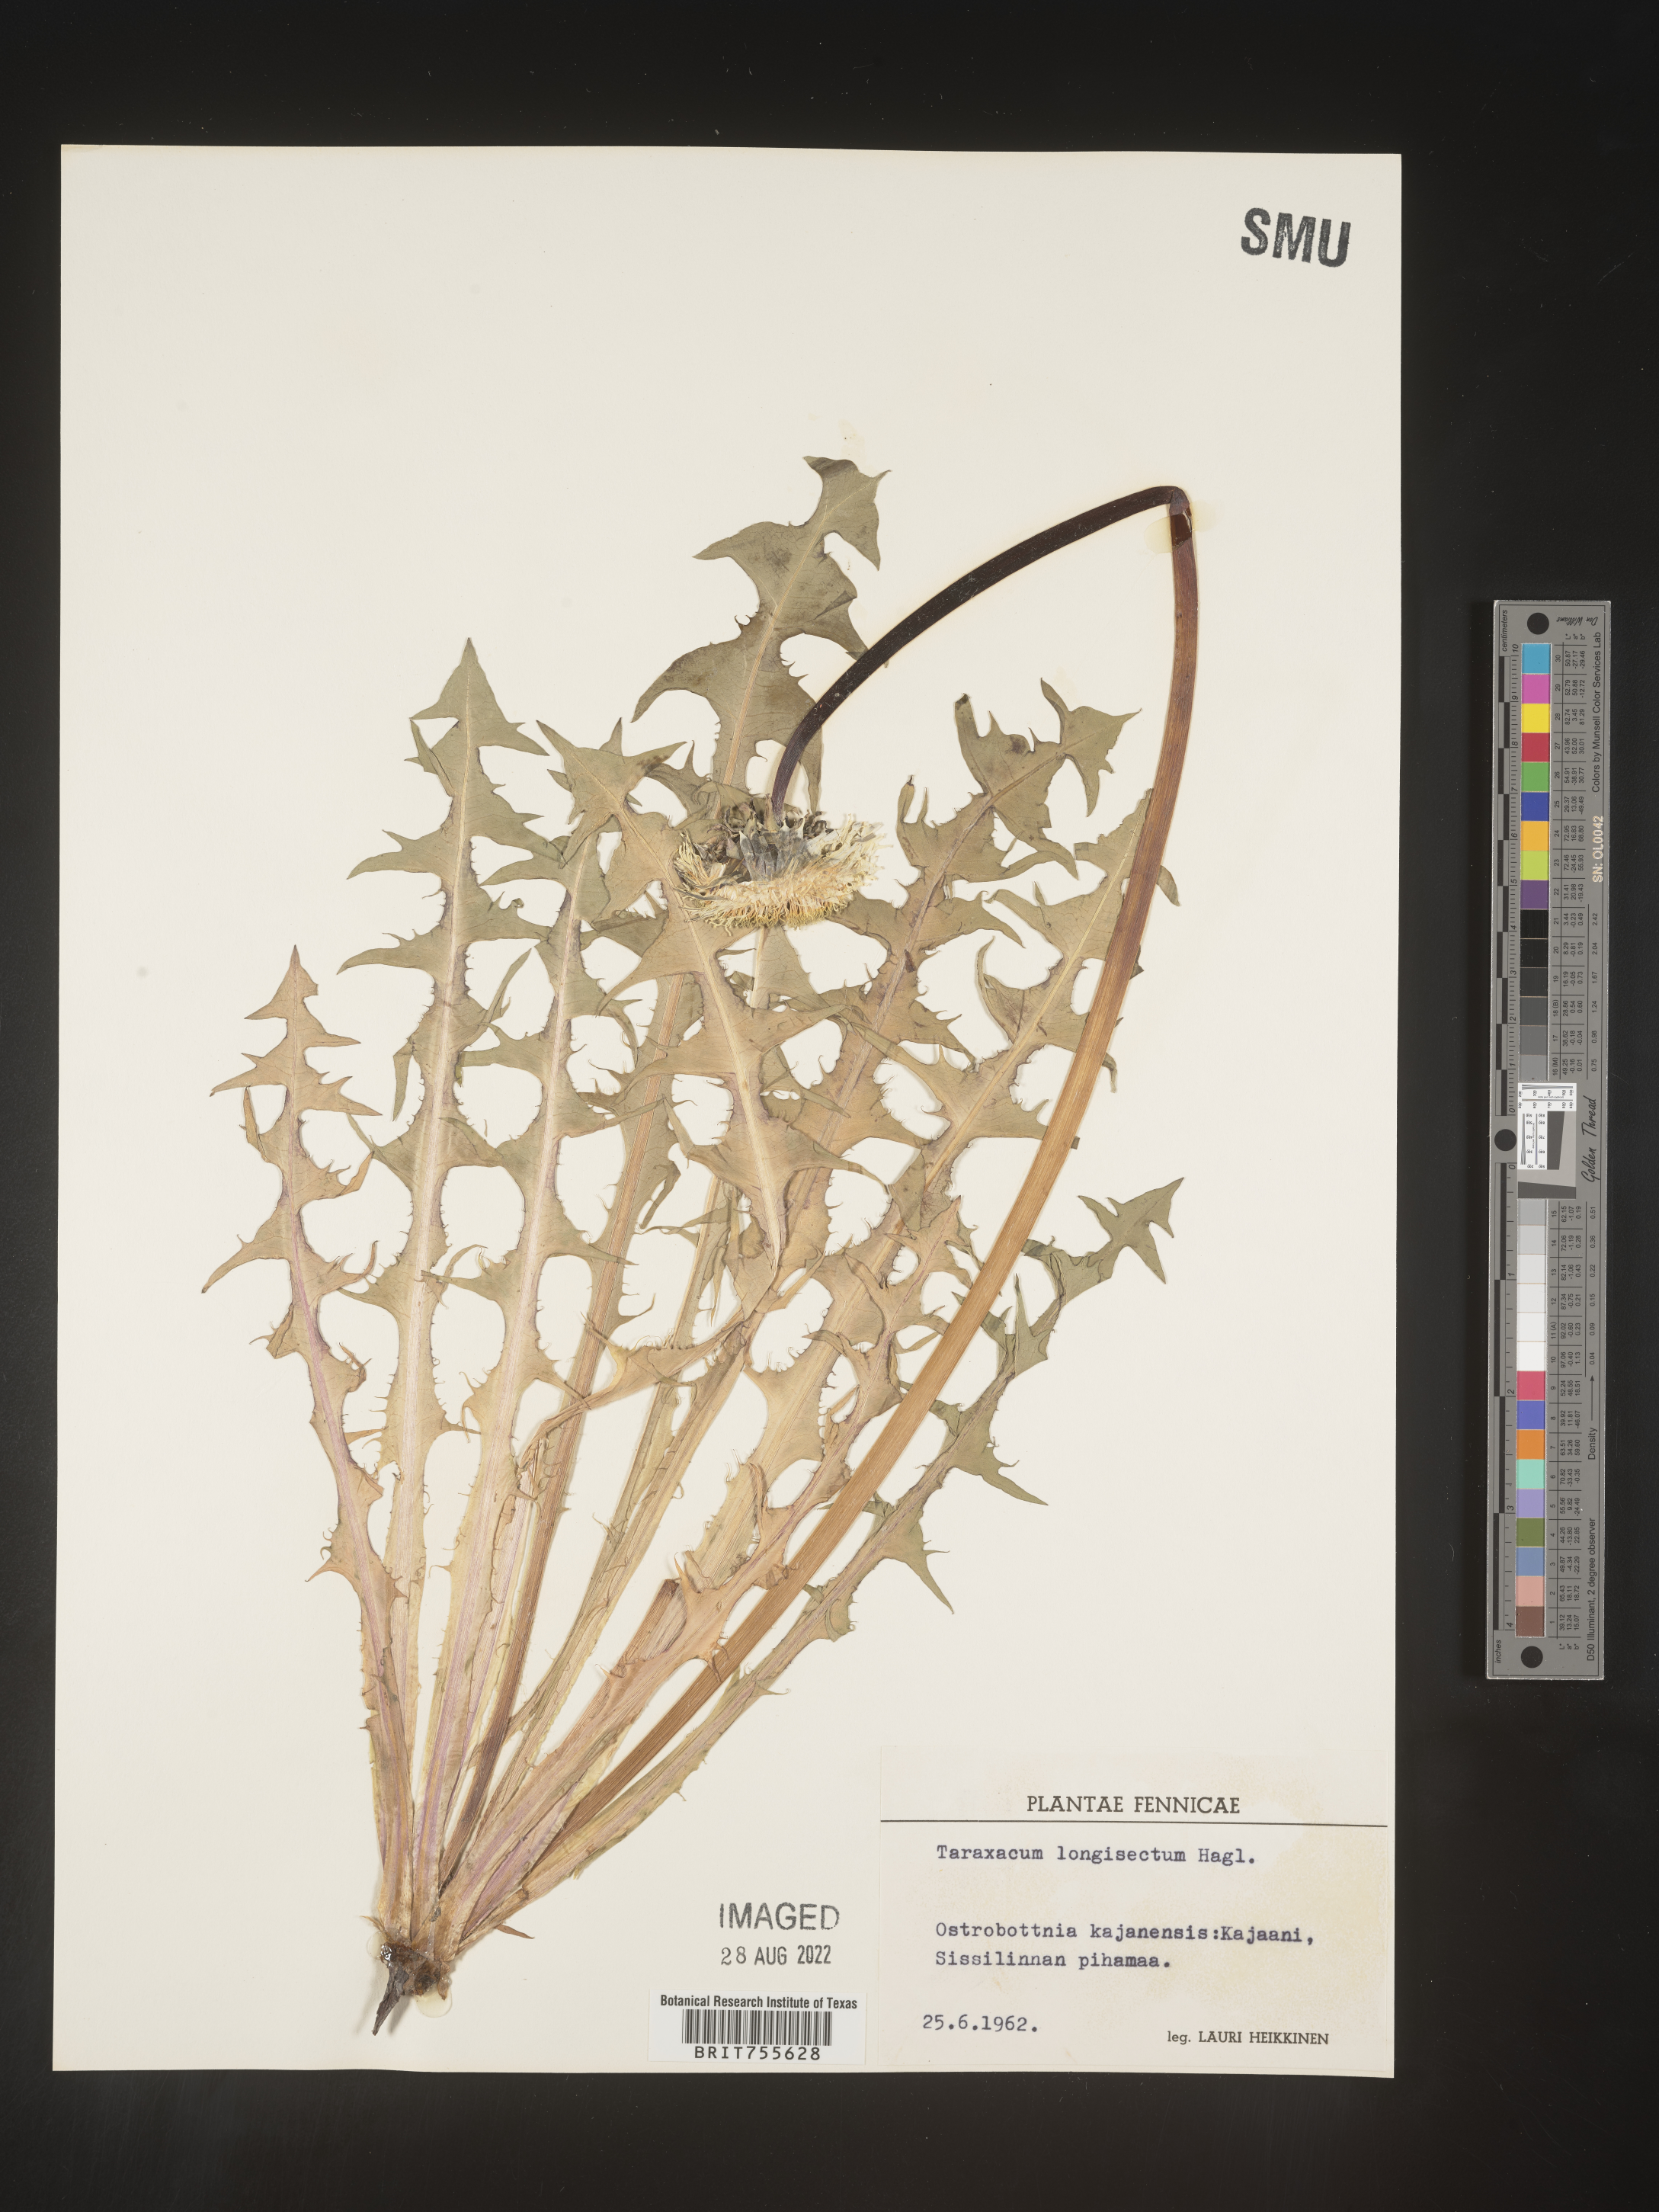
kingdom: Plantae
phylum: Tracheophyta
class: Magnoliopsida
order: Asterales
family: Asteraceae
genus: Taraxacum
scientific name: Taraxacum
